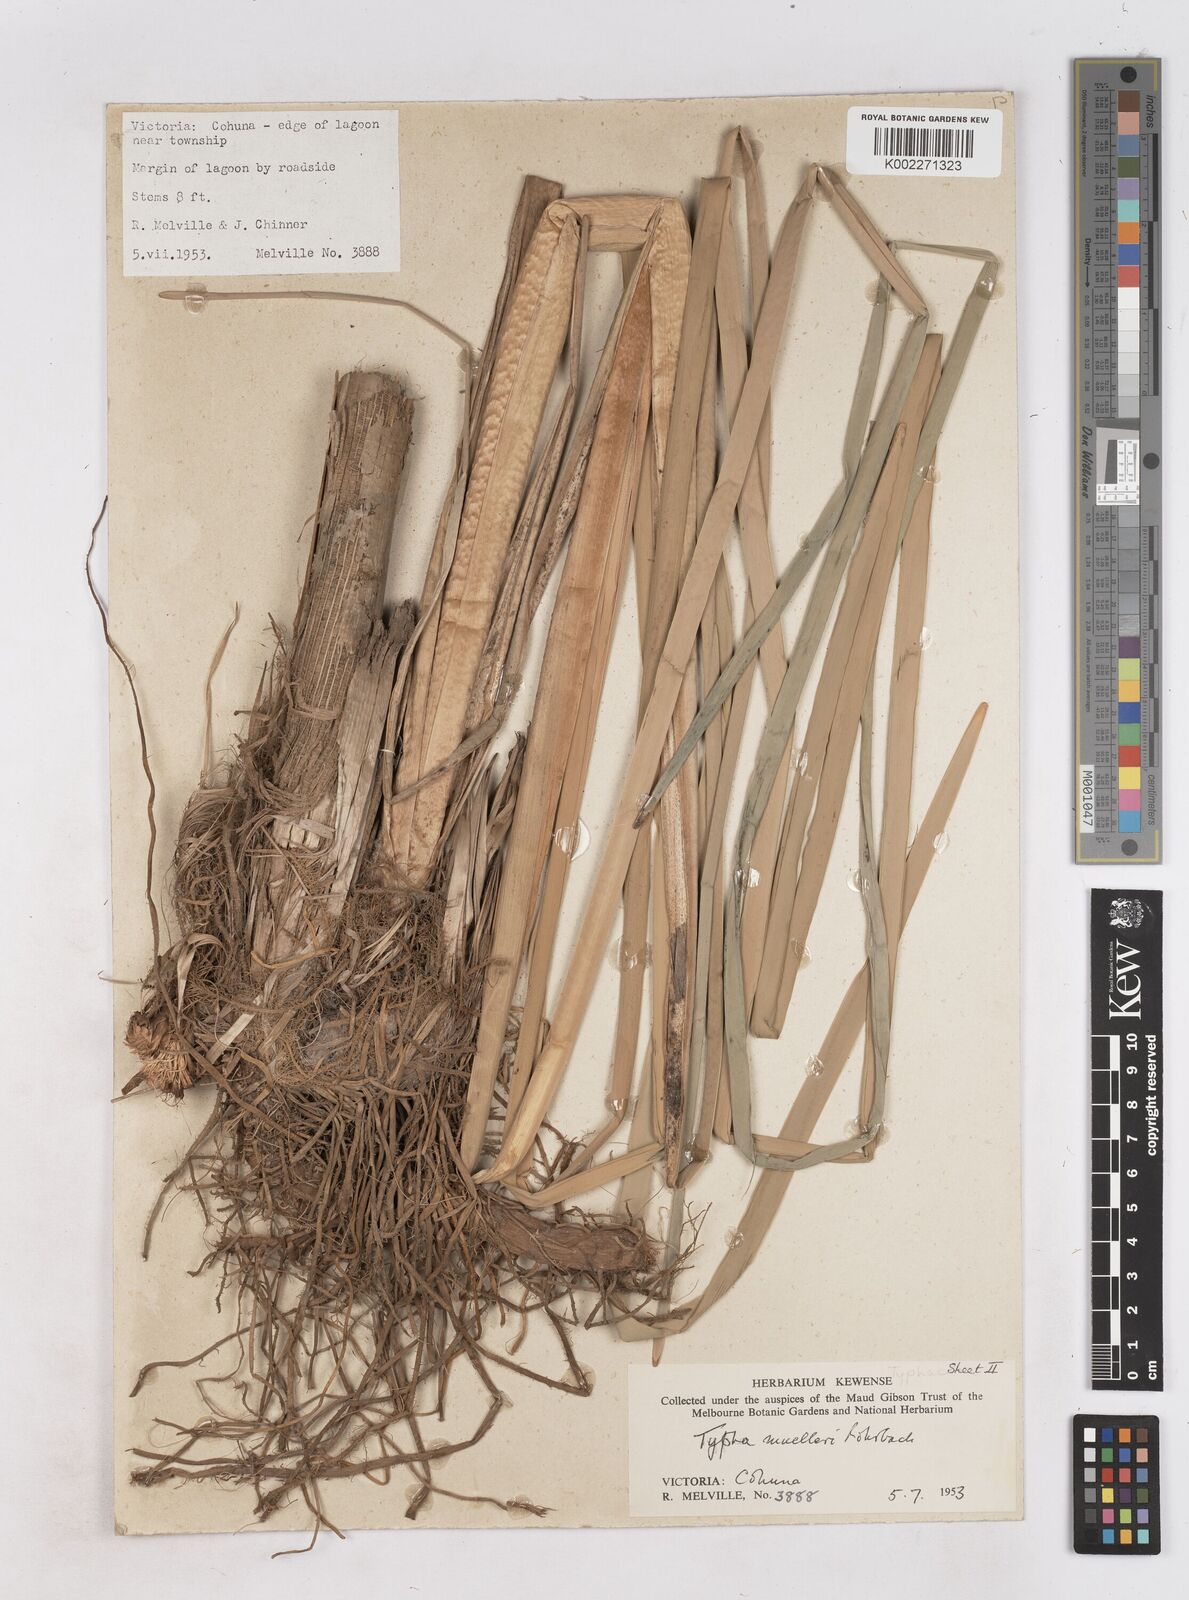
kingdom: Plantae
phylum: Tracheophyta
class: Liliopsida
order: Poales
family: Typhaceae
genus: Typha
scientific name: Typha orientalis
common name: Bullrush
